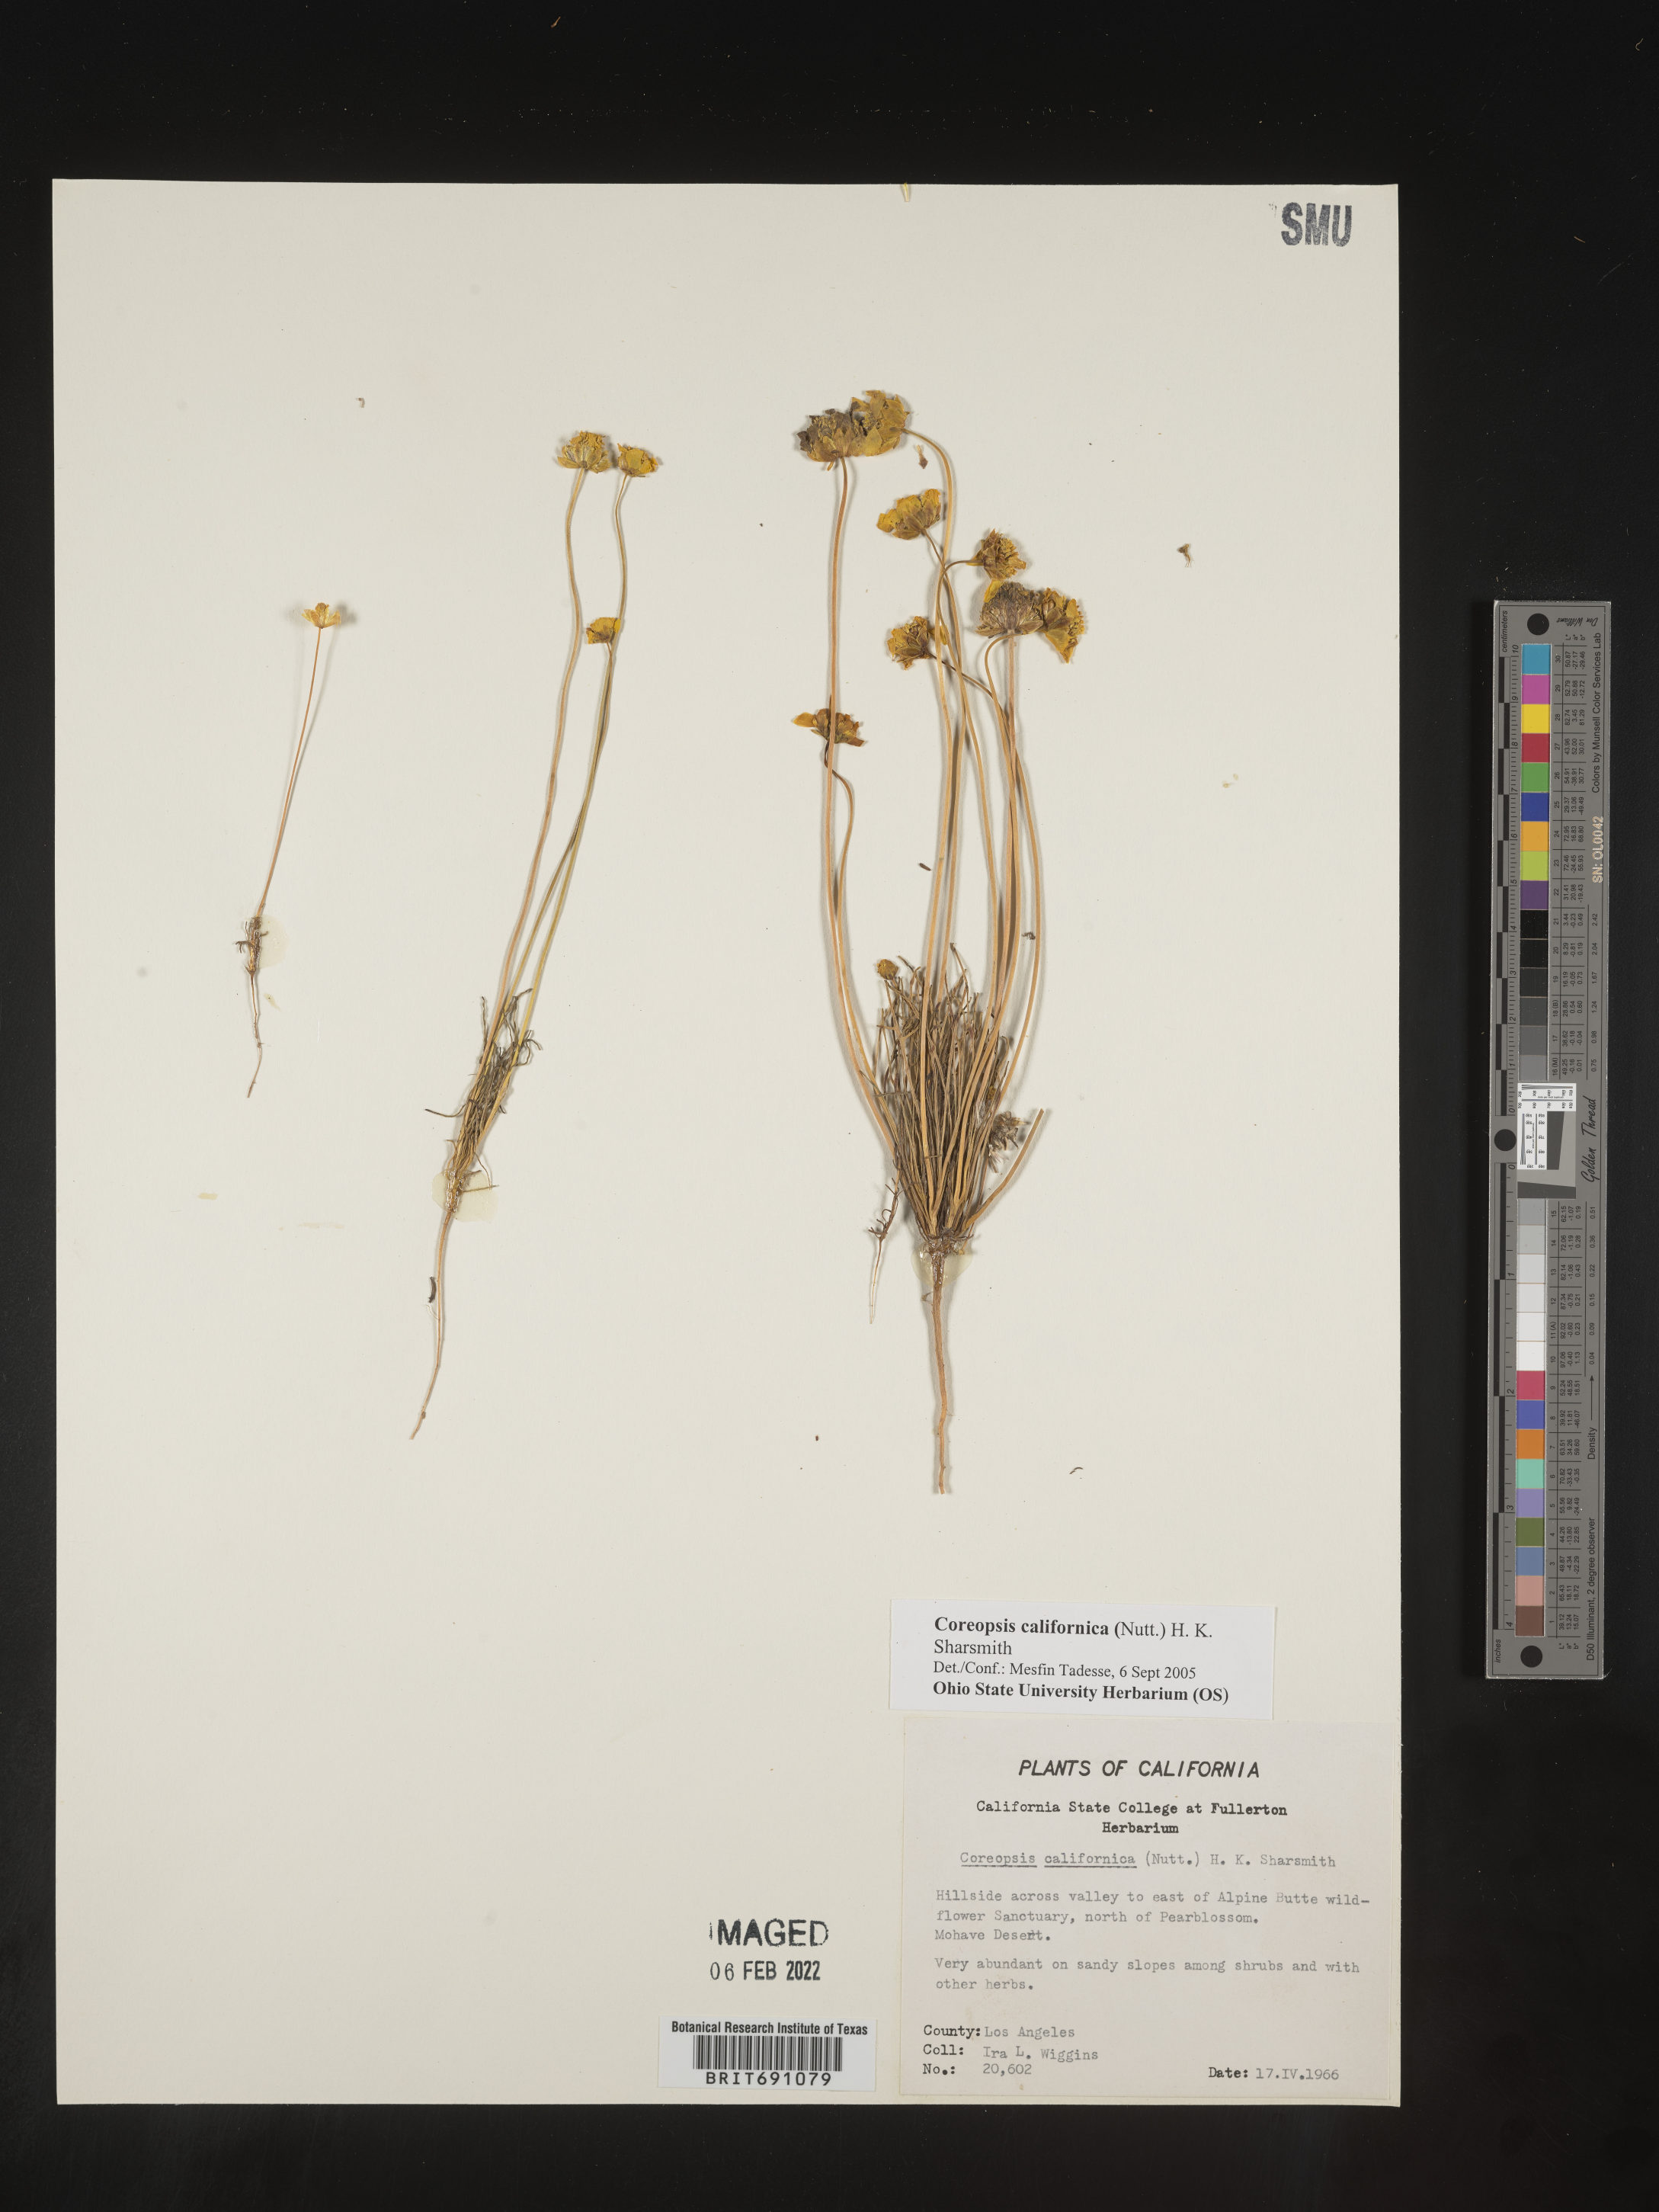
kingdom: Plantae
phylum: Tracheophyta
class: Magnoliopsida
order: Asterales
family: Asteraceae
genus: Coreopsis
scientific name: Coreopsis californica
